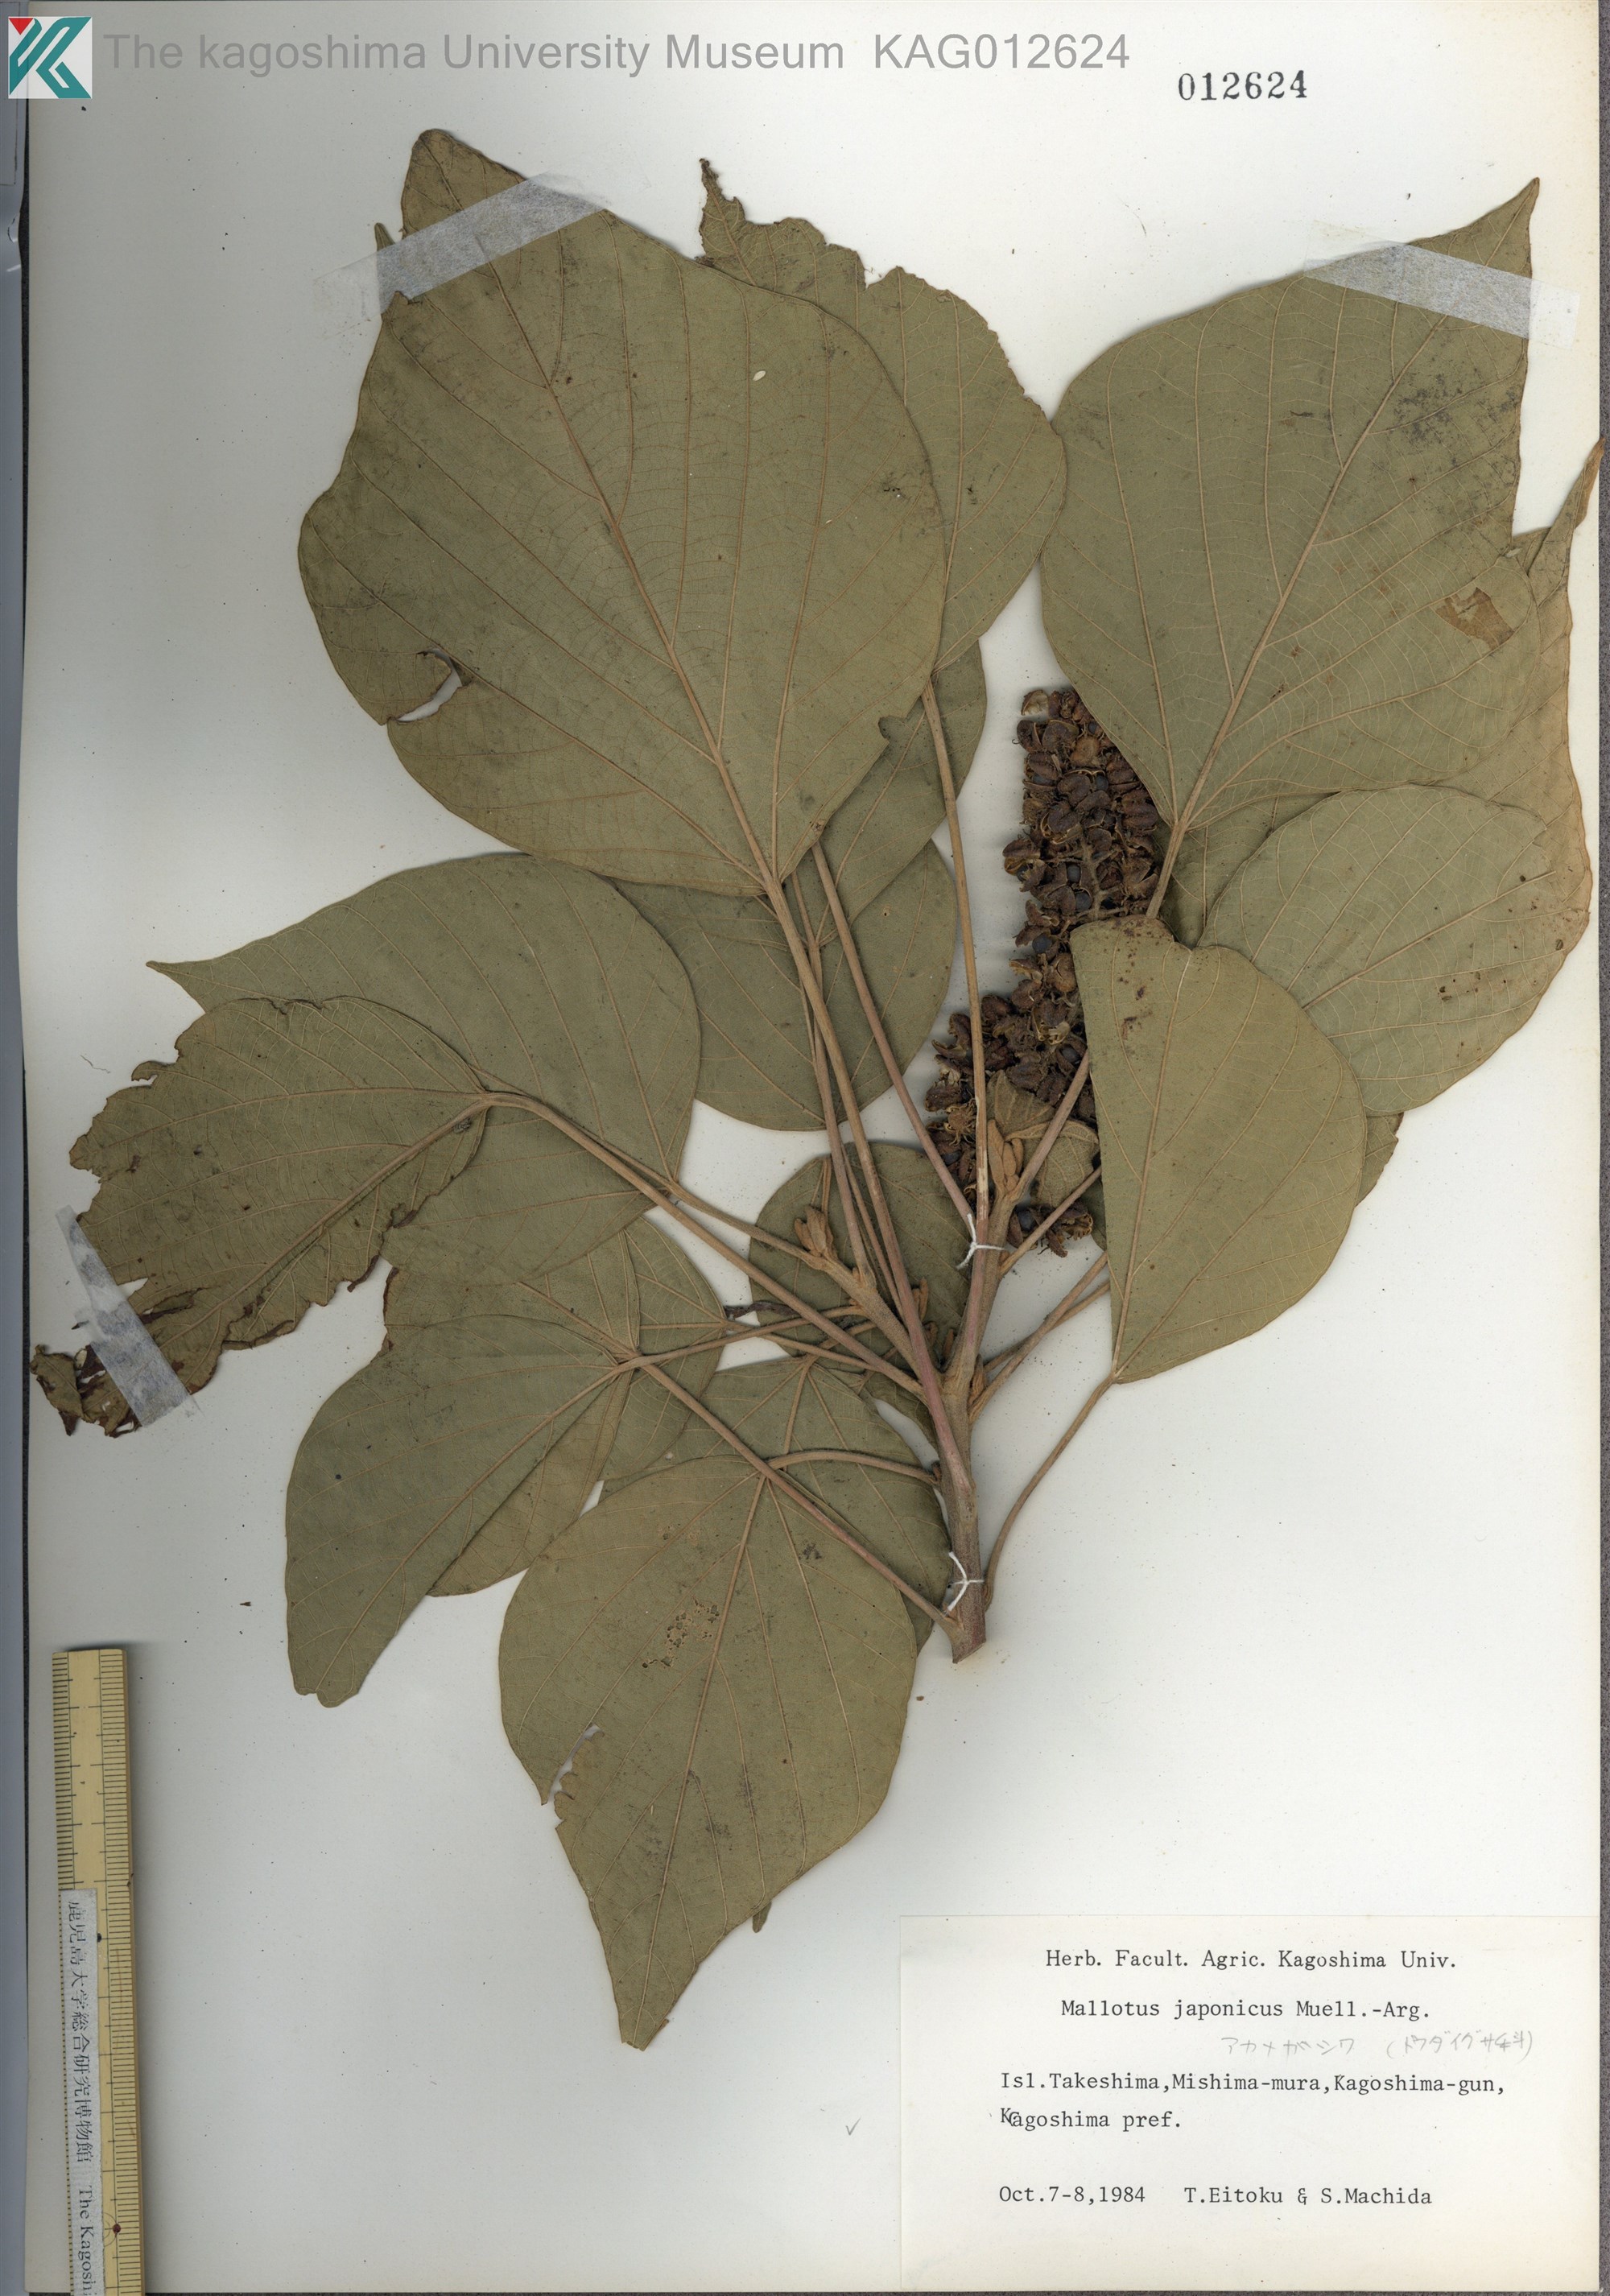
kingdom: Plantae
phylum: Tracheophyta
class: Magnoliopsida
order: Malpighiales
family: Euphorbiaceae
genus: Mallotus
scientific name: Mallotus japonicus
